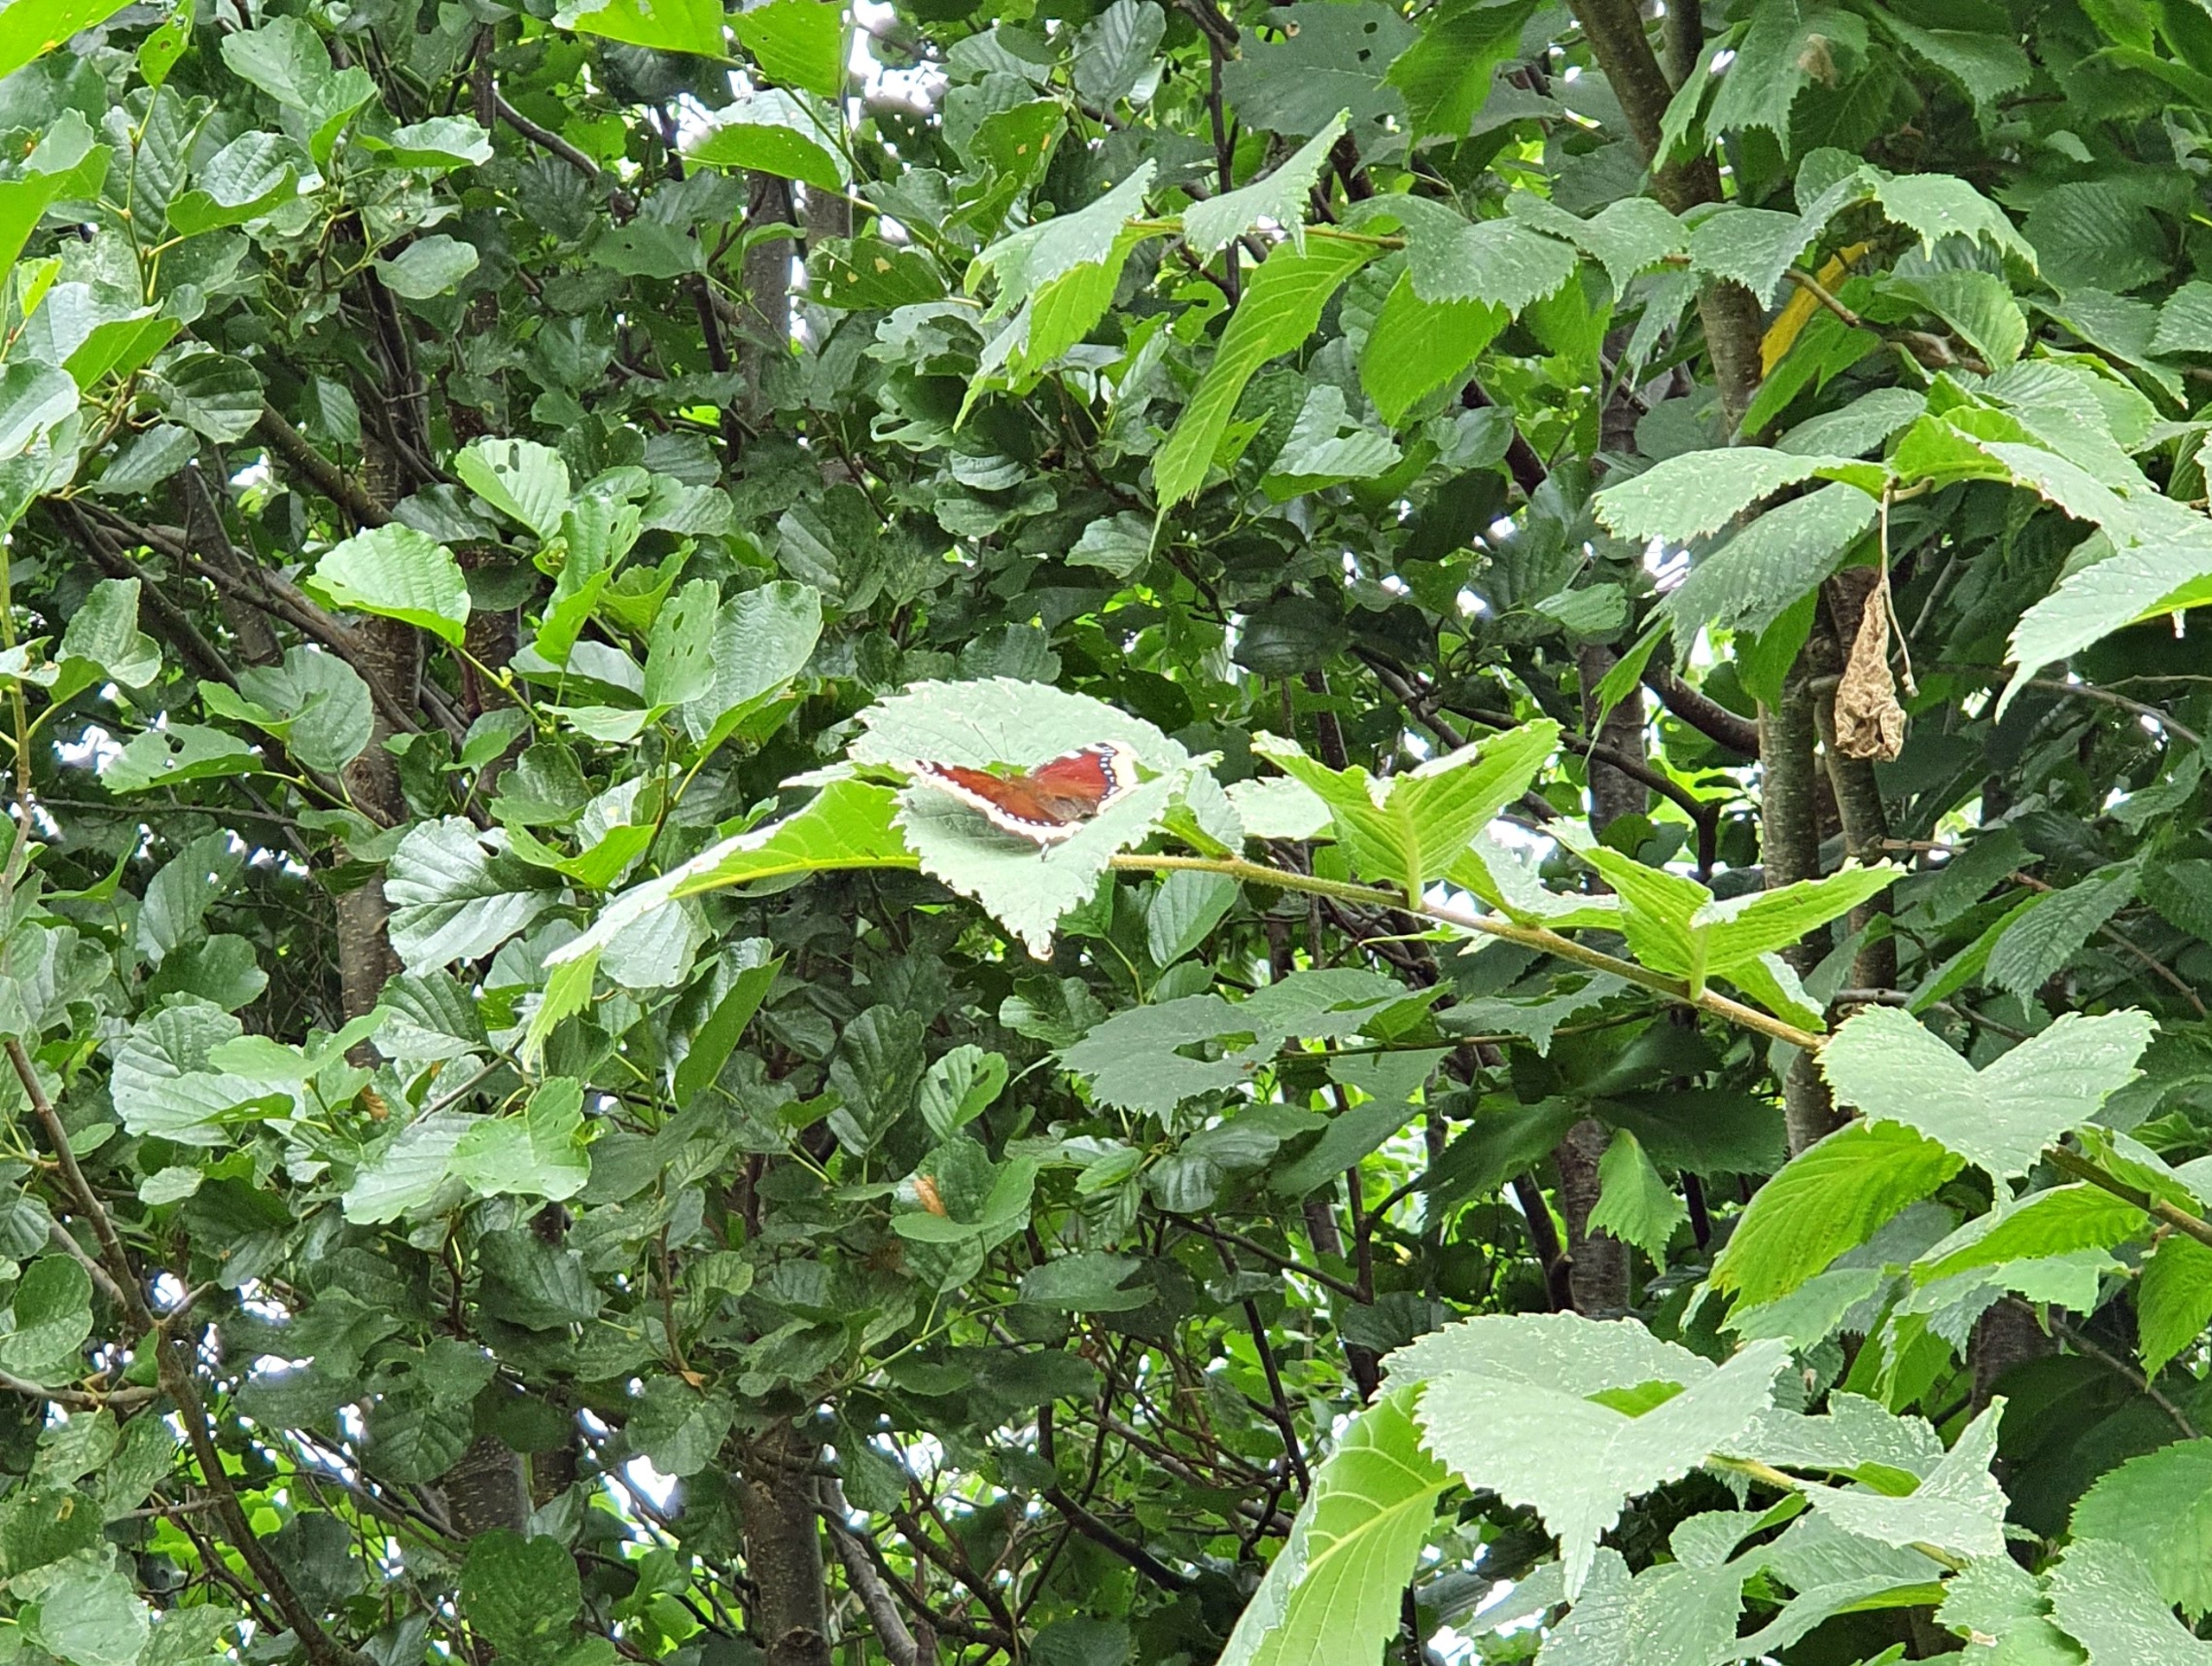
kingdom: Animalia
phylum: Arthropoda
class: Insecta
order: Lepidoptera
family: Nymphalidae
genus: Nymphalis
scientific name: Nymphalis antiopa
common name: Sørgekåbe
